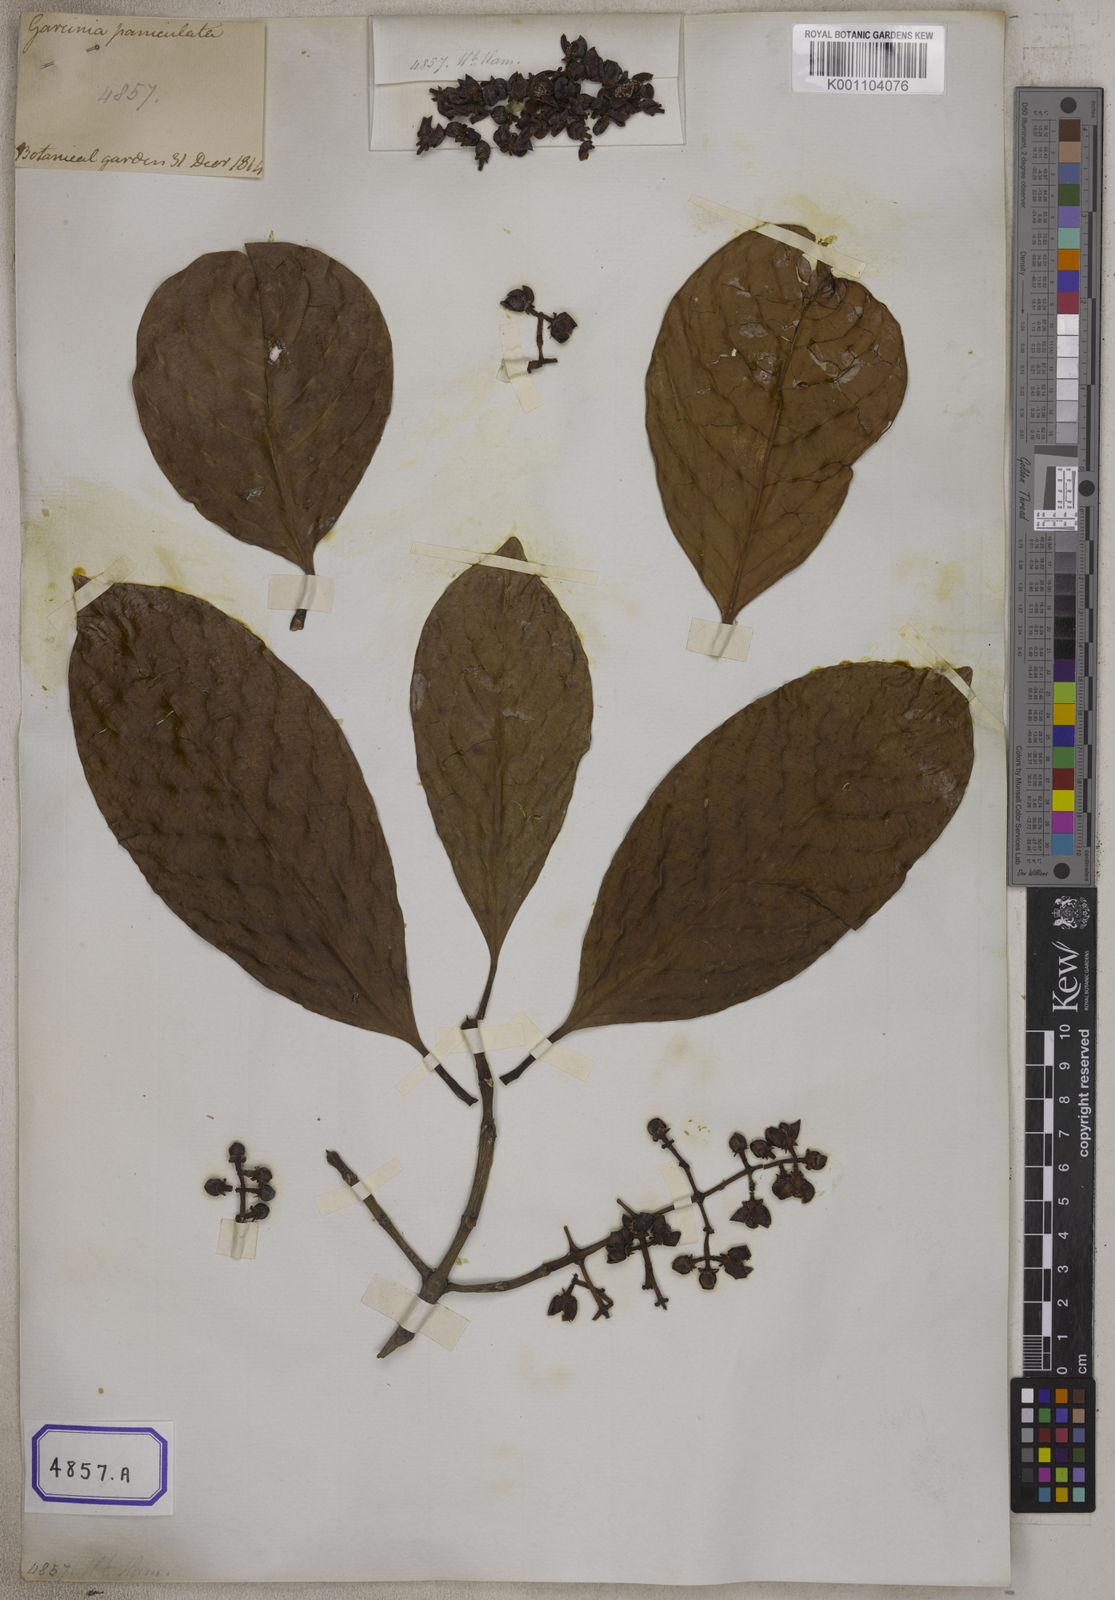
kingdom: Plantae
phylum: Tracheophyta
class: Magnoliopsida
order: Malpighiales
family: Clusiaceae
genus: Garcinia
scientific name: Garcinia
